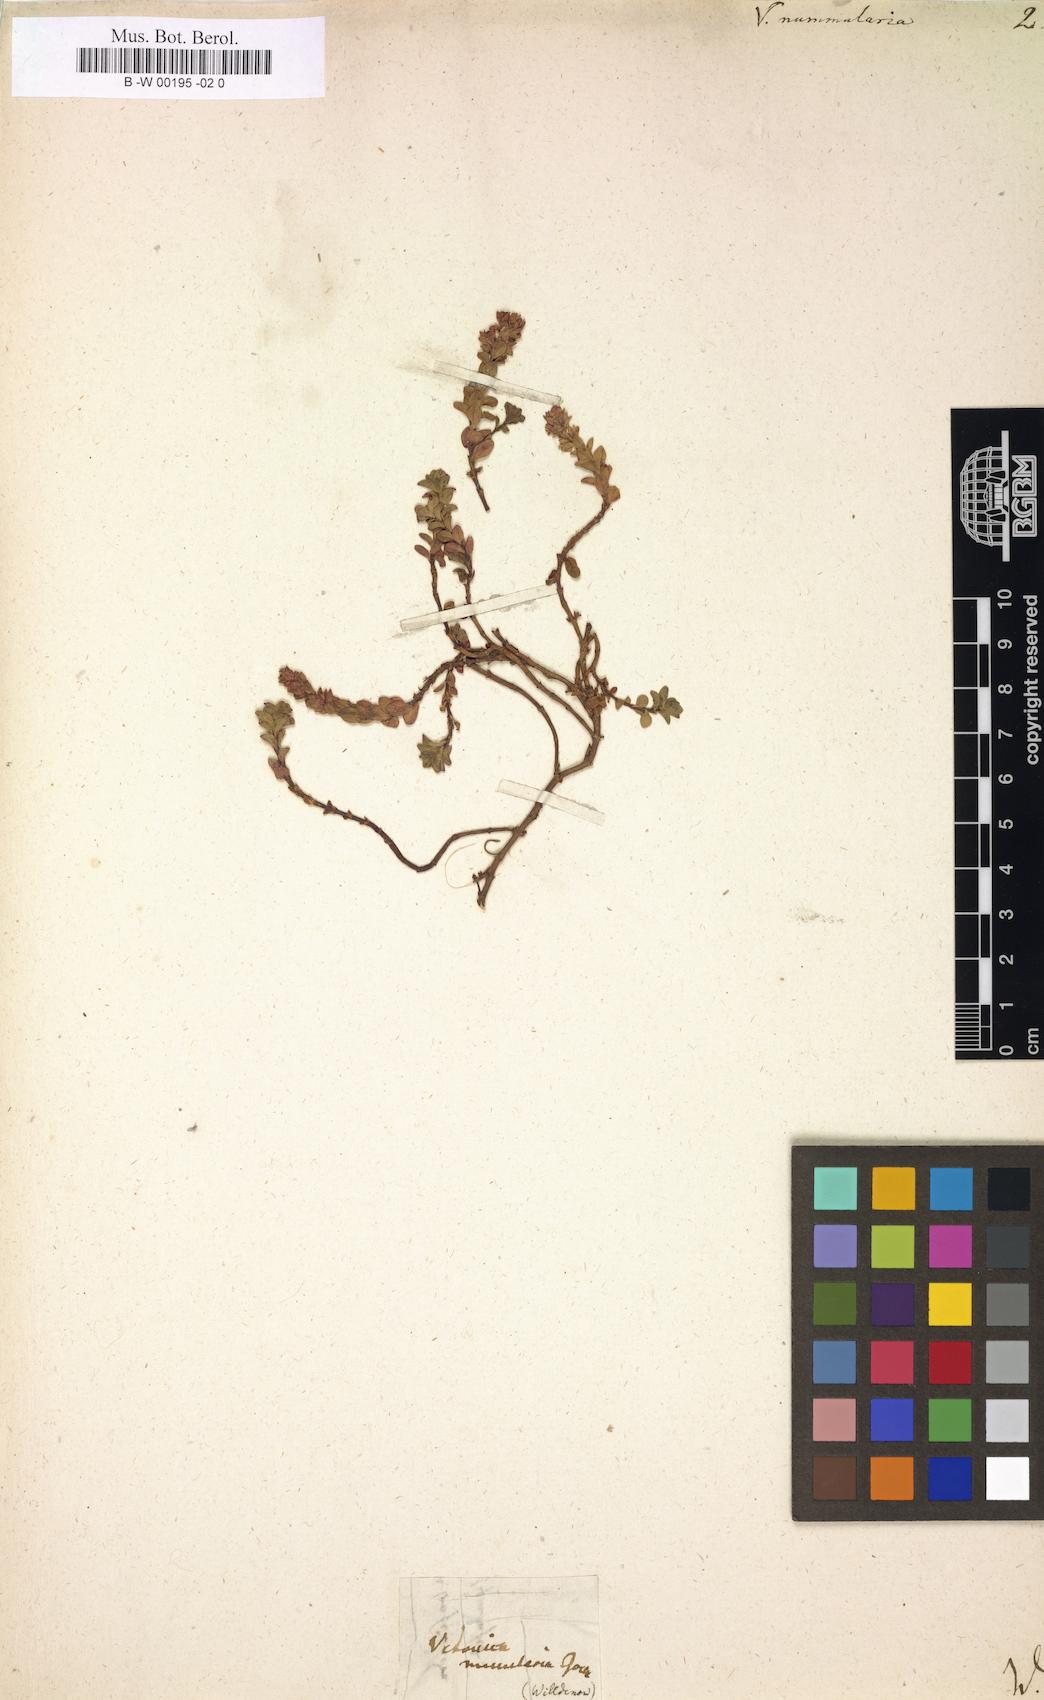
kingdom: Plantae
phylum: Tracheophyta
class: Magnoliopsida
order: Lamiales
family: Plantaginaceae
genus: Veronica
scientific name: Veronica nummularia
